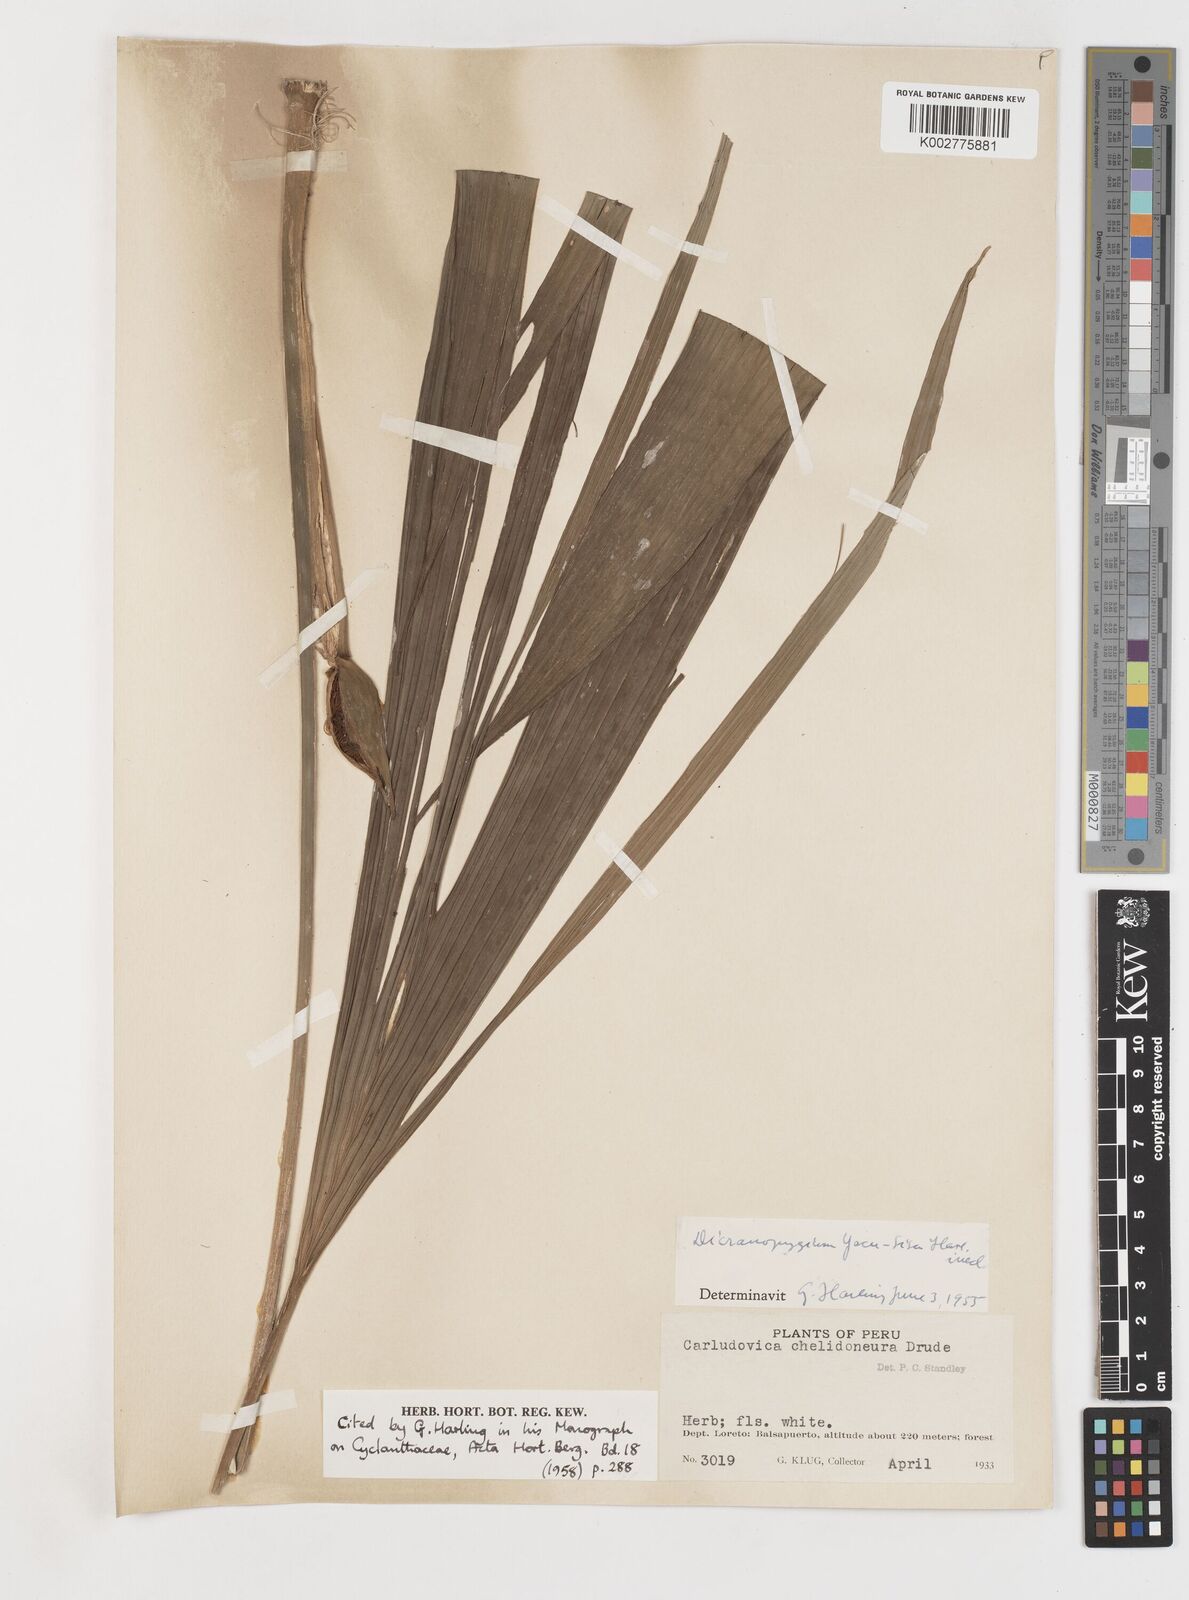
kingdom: Plantae
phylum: Tracheophyta
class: Liliopsida
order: Pandanales
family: Cyclanthaceae
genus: Dicranopygium
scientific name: Dicranopygium yacu-sisa
